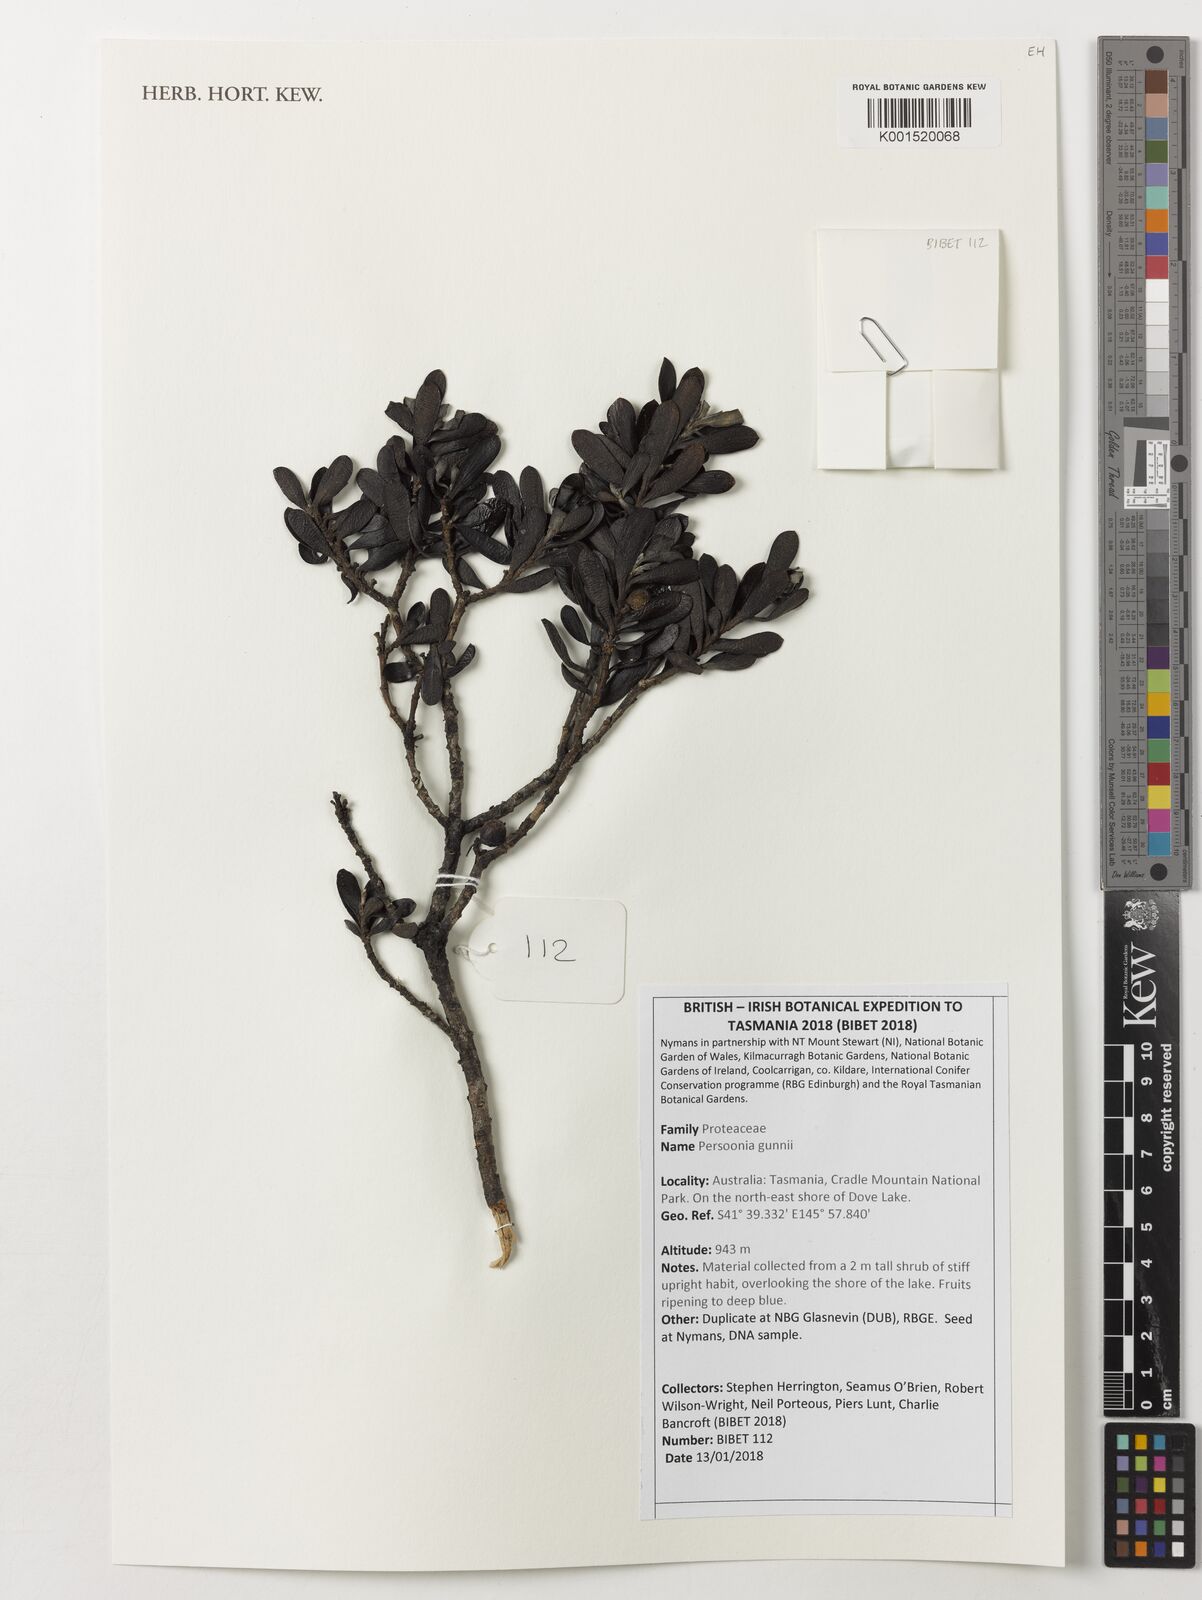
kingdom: Plantae
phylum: Tracheophyta
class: Magnoliopsida
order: Proteales
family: Proteaceae
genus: Persoonia
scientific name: Persoonia gunnii
